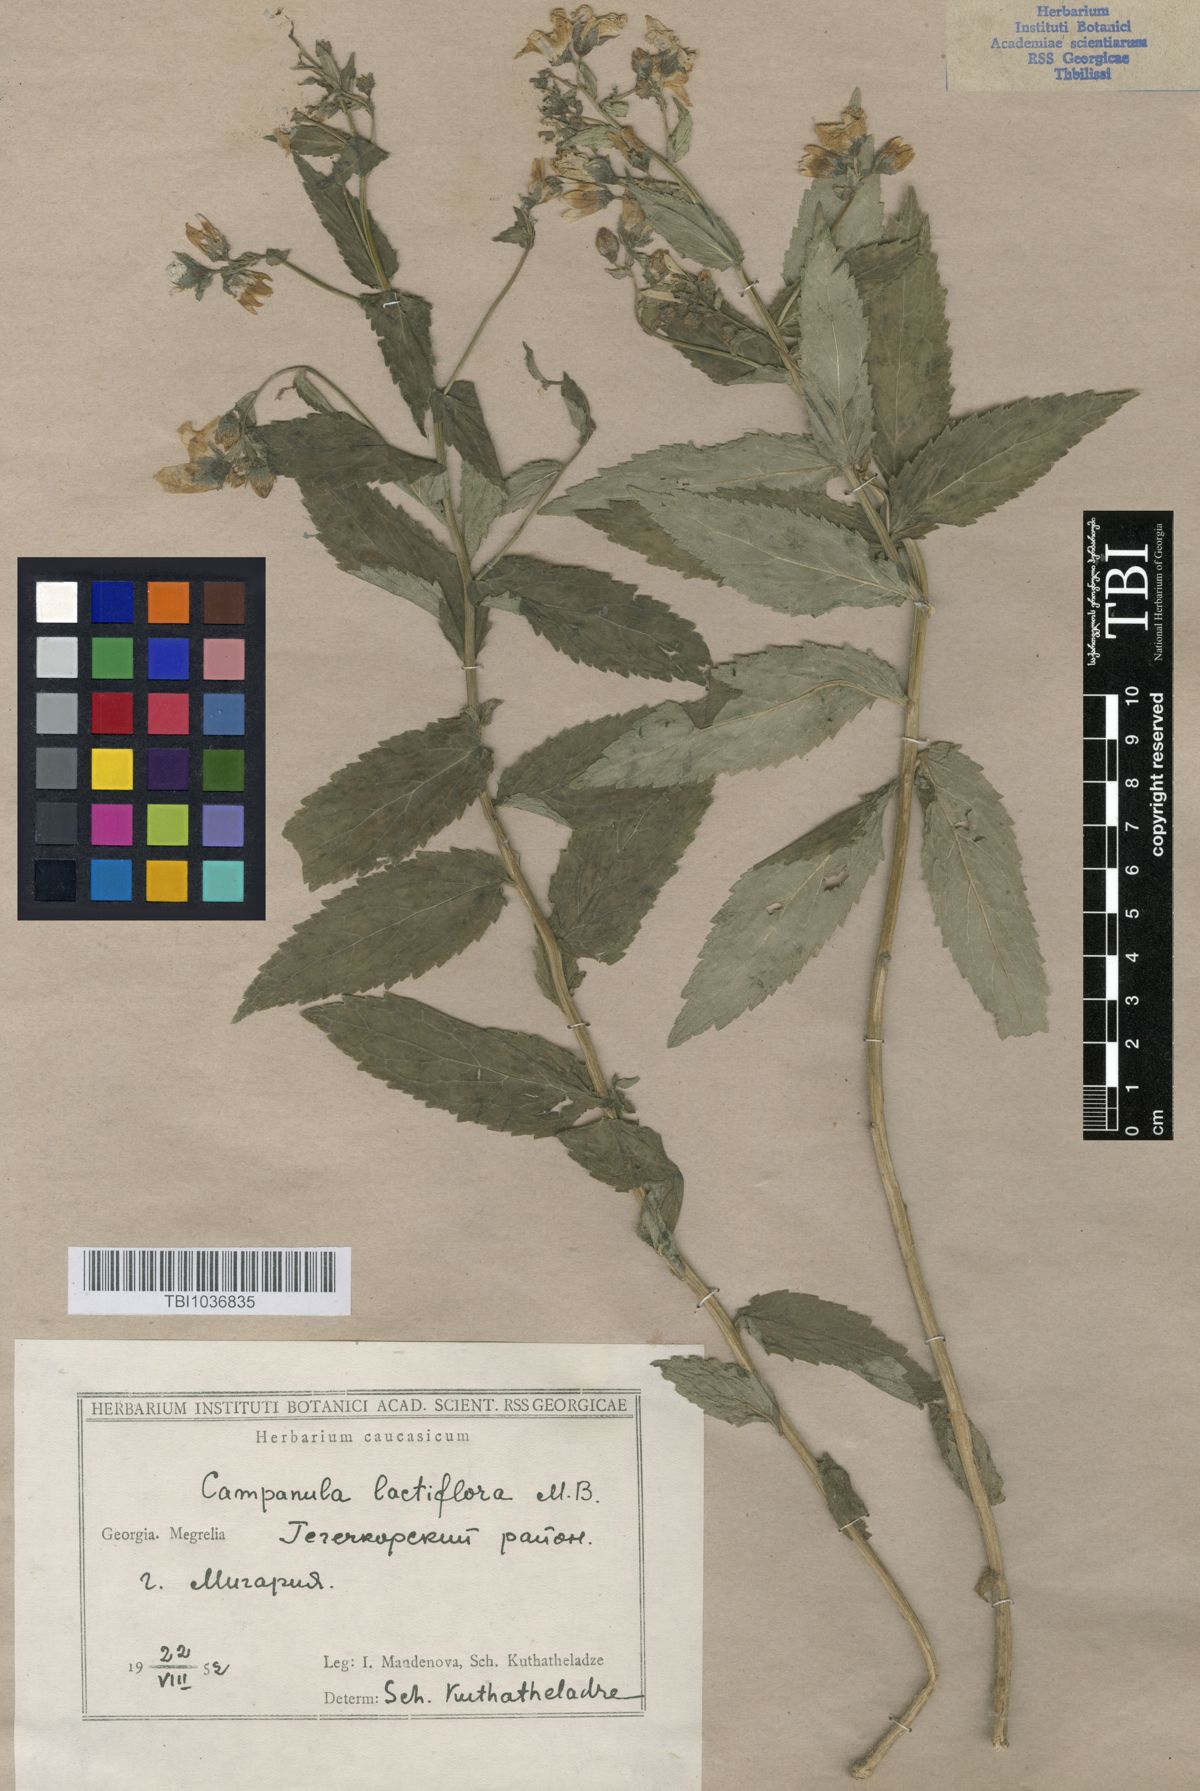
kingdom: Plantae
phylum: Tracheophyta
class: Magnoliopsida
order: Asterales
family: Campanulaceae
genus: Campanula
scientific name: Campanula lactiflora
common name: Milky bellflower
